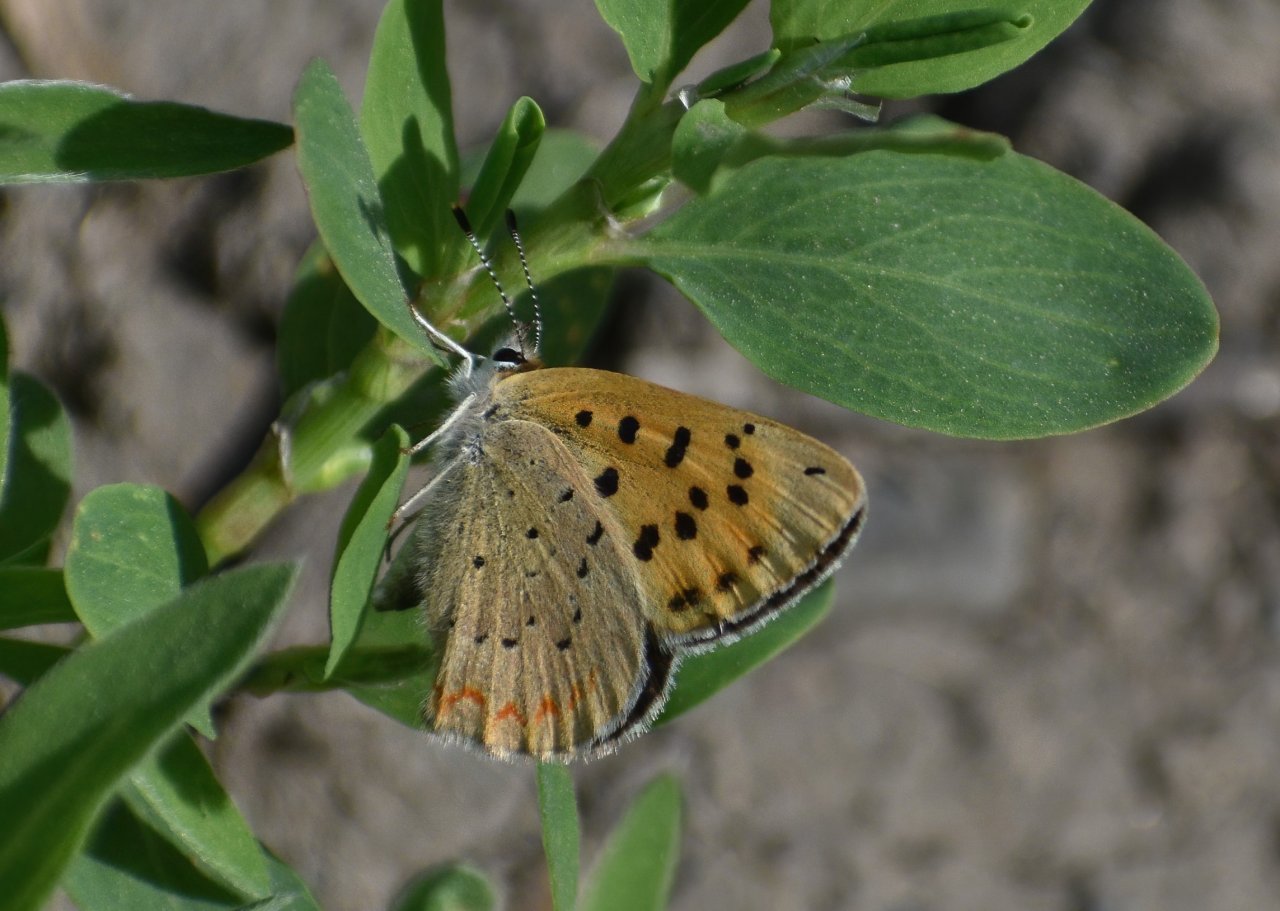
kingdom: Animalia
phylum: Arthropoda
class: Insecta
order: Lepidoptera
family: Sesiidae
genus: Sesia
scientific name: Sesia Lycaena helloides
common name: Purplish Copper
